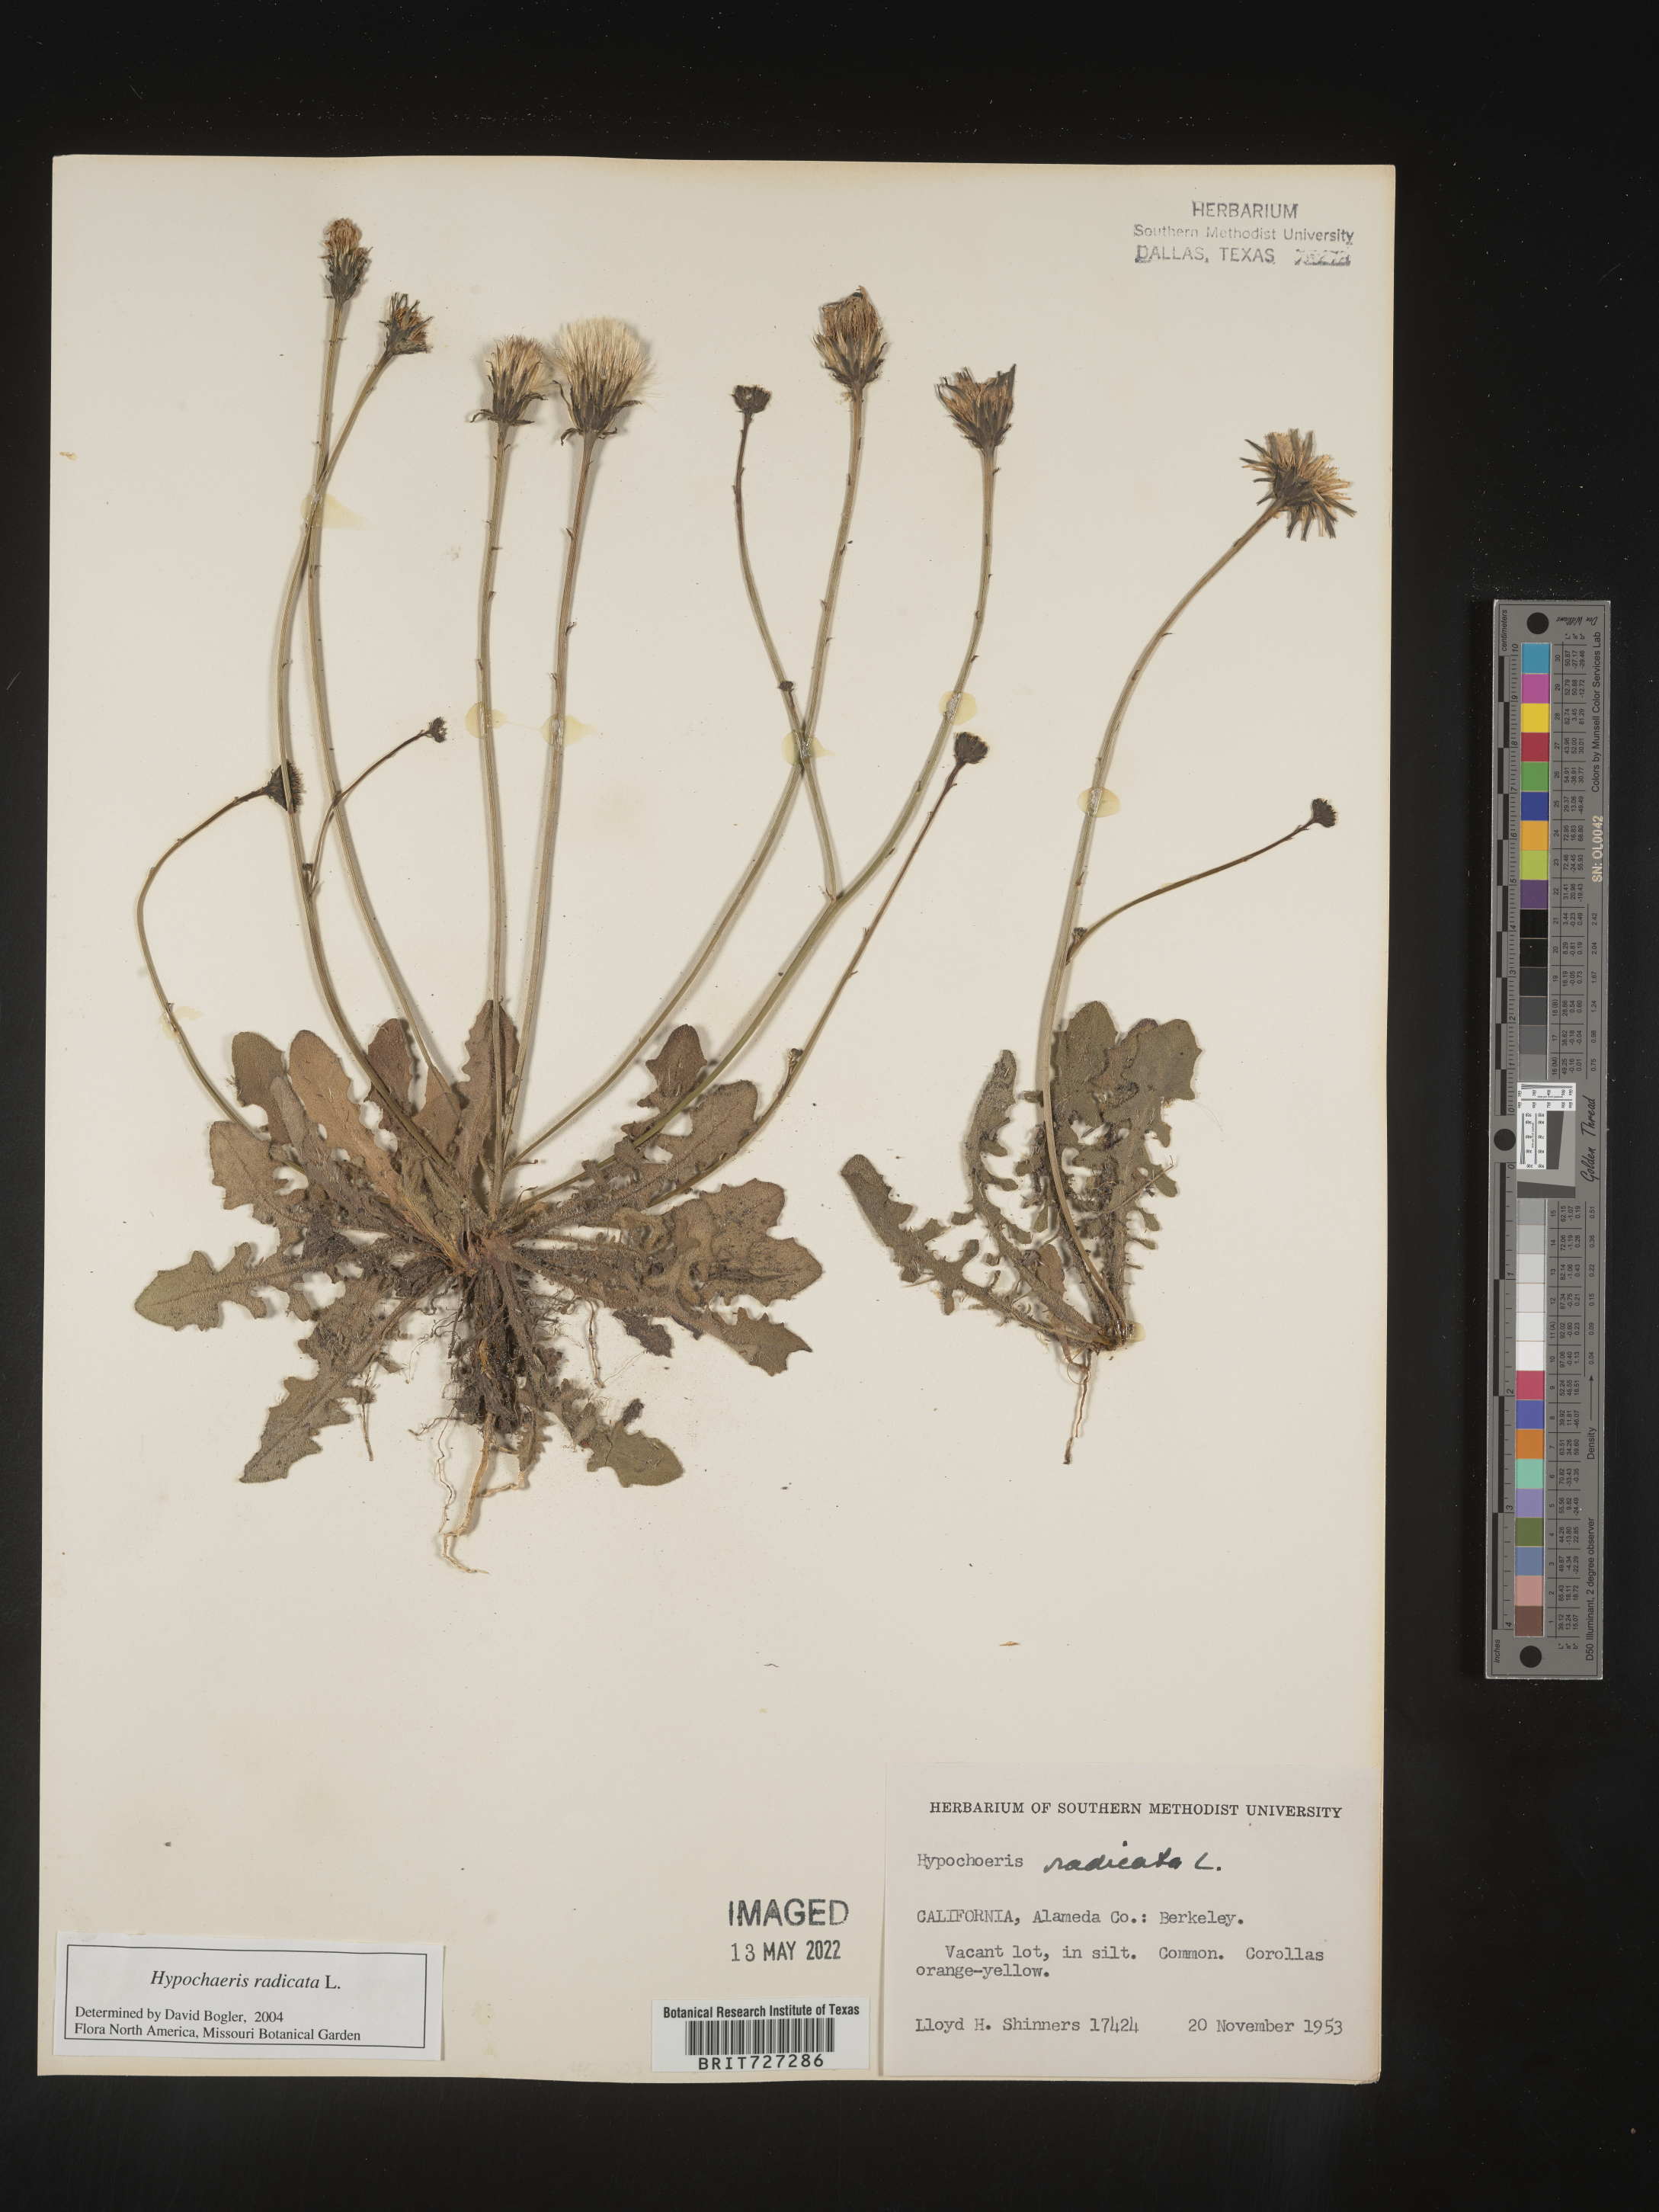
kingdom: Plantae
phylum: Tracheophyta
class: Magnoliopsida
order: Asterales
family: Asteraceae
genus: Hypochaeris
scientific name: Hypochaeris radicata
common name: Flatweed
